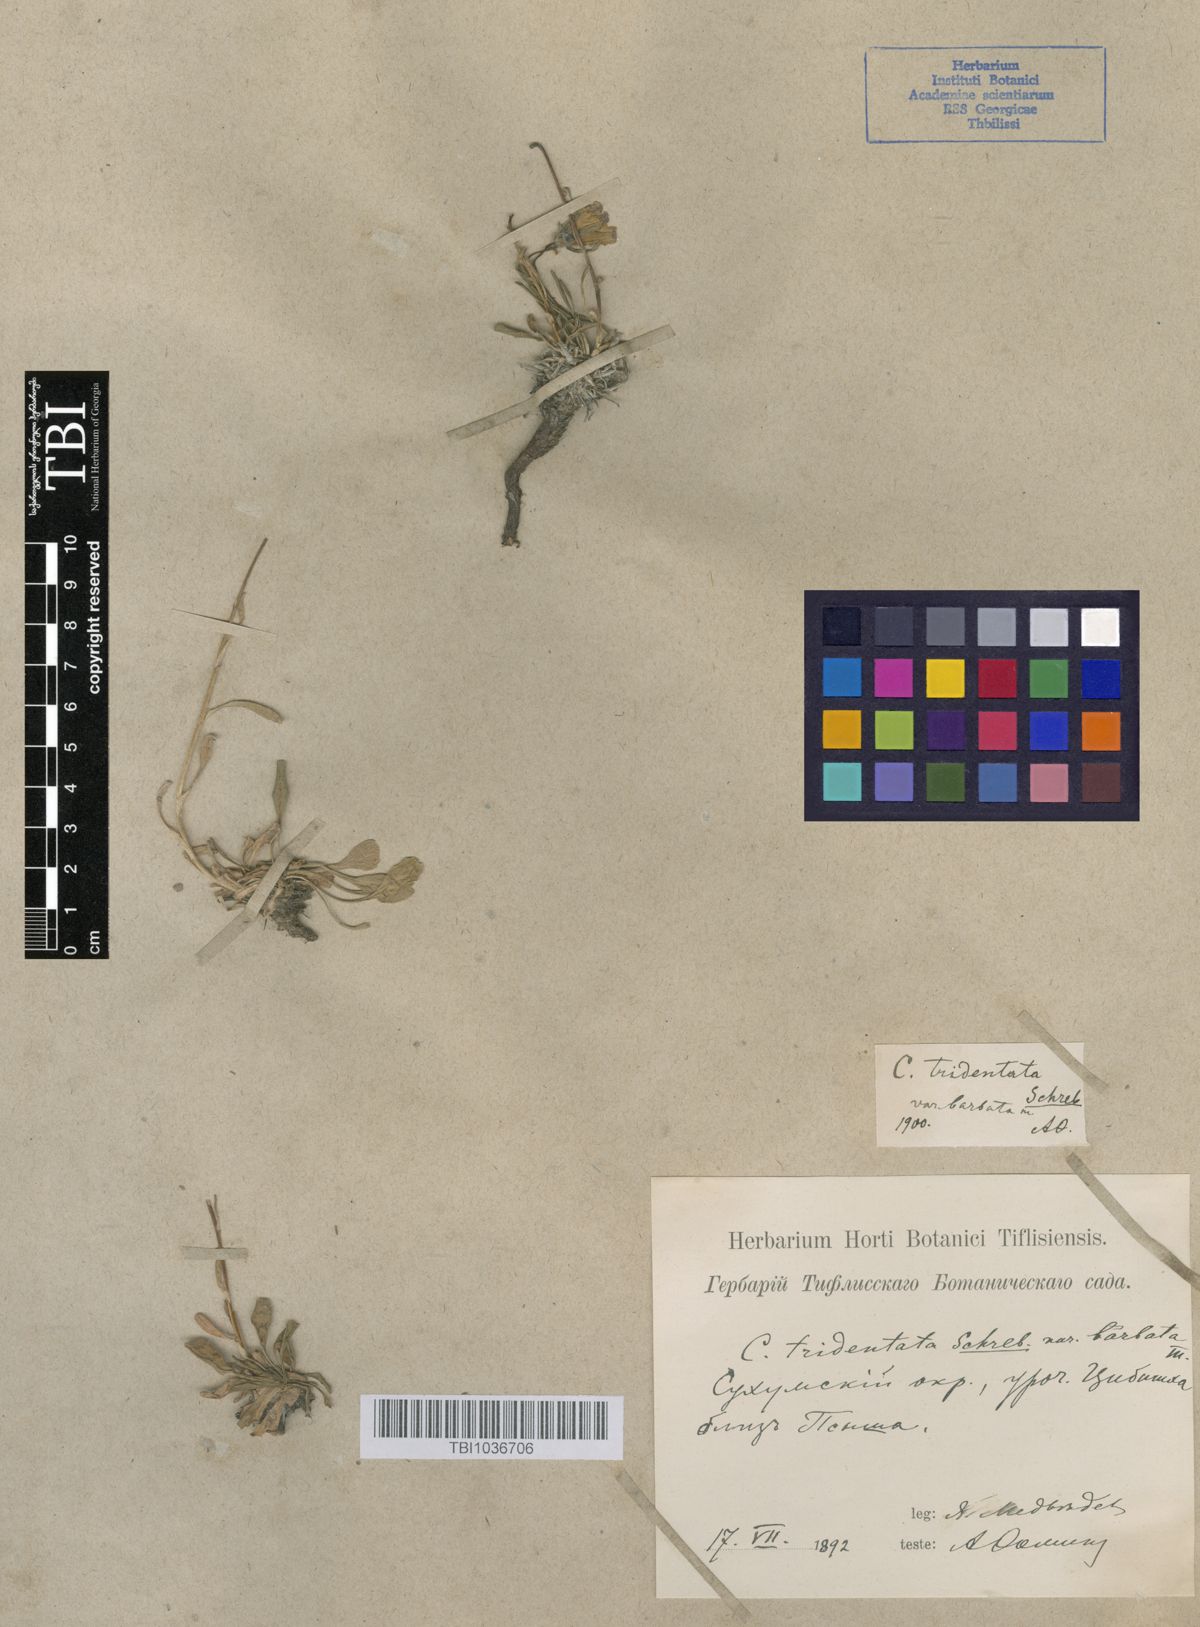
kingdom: Plantae
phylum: Tracheophyta
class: Magnoliopsida
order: Asterales
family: Campanulaceae
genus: Campanula
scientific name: Campanula tridentata
